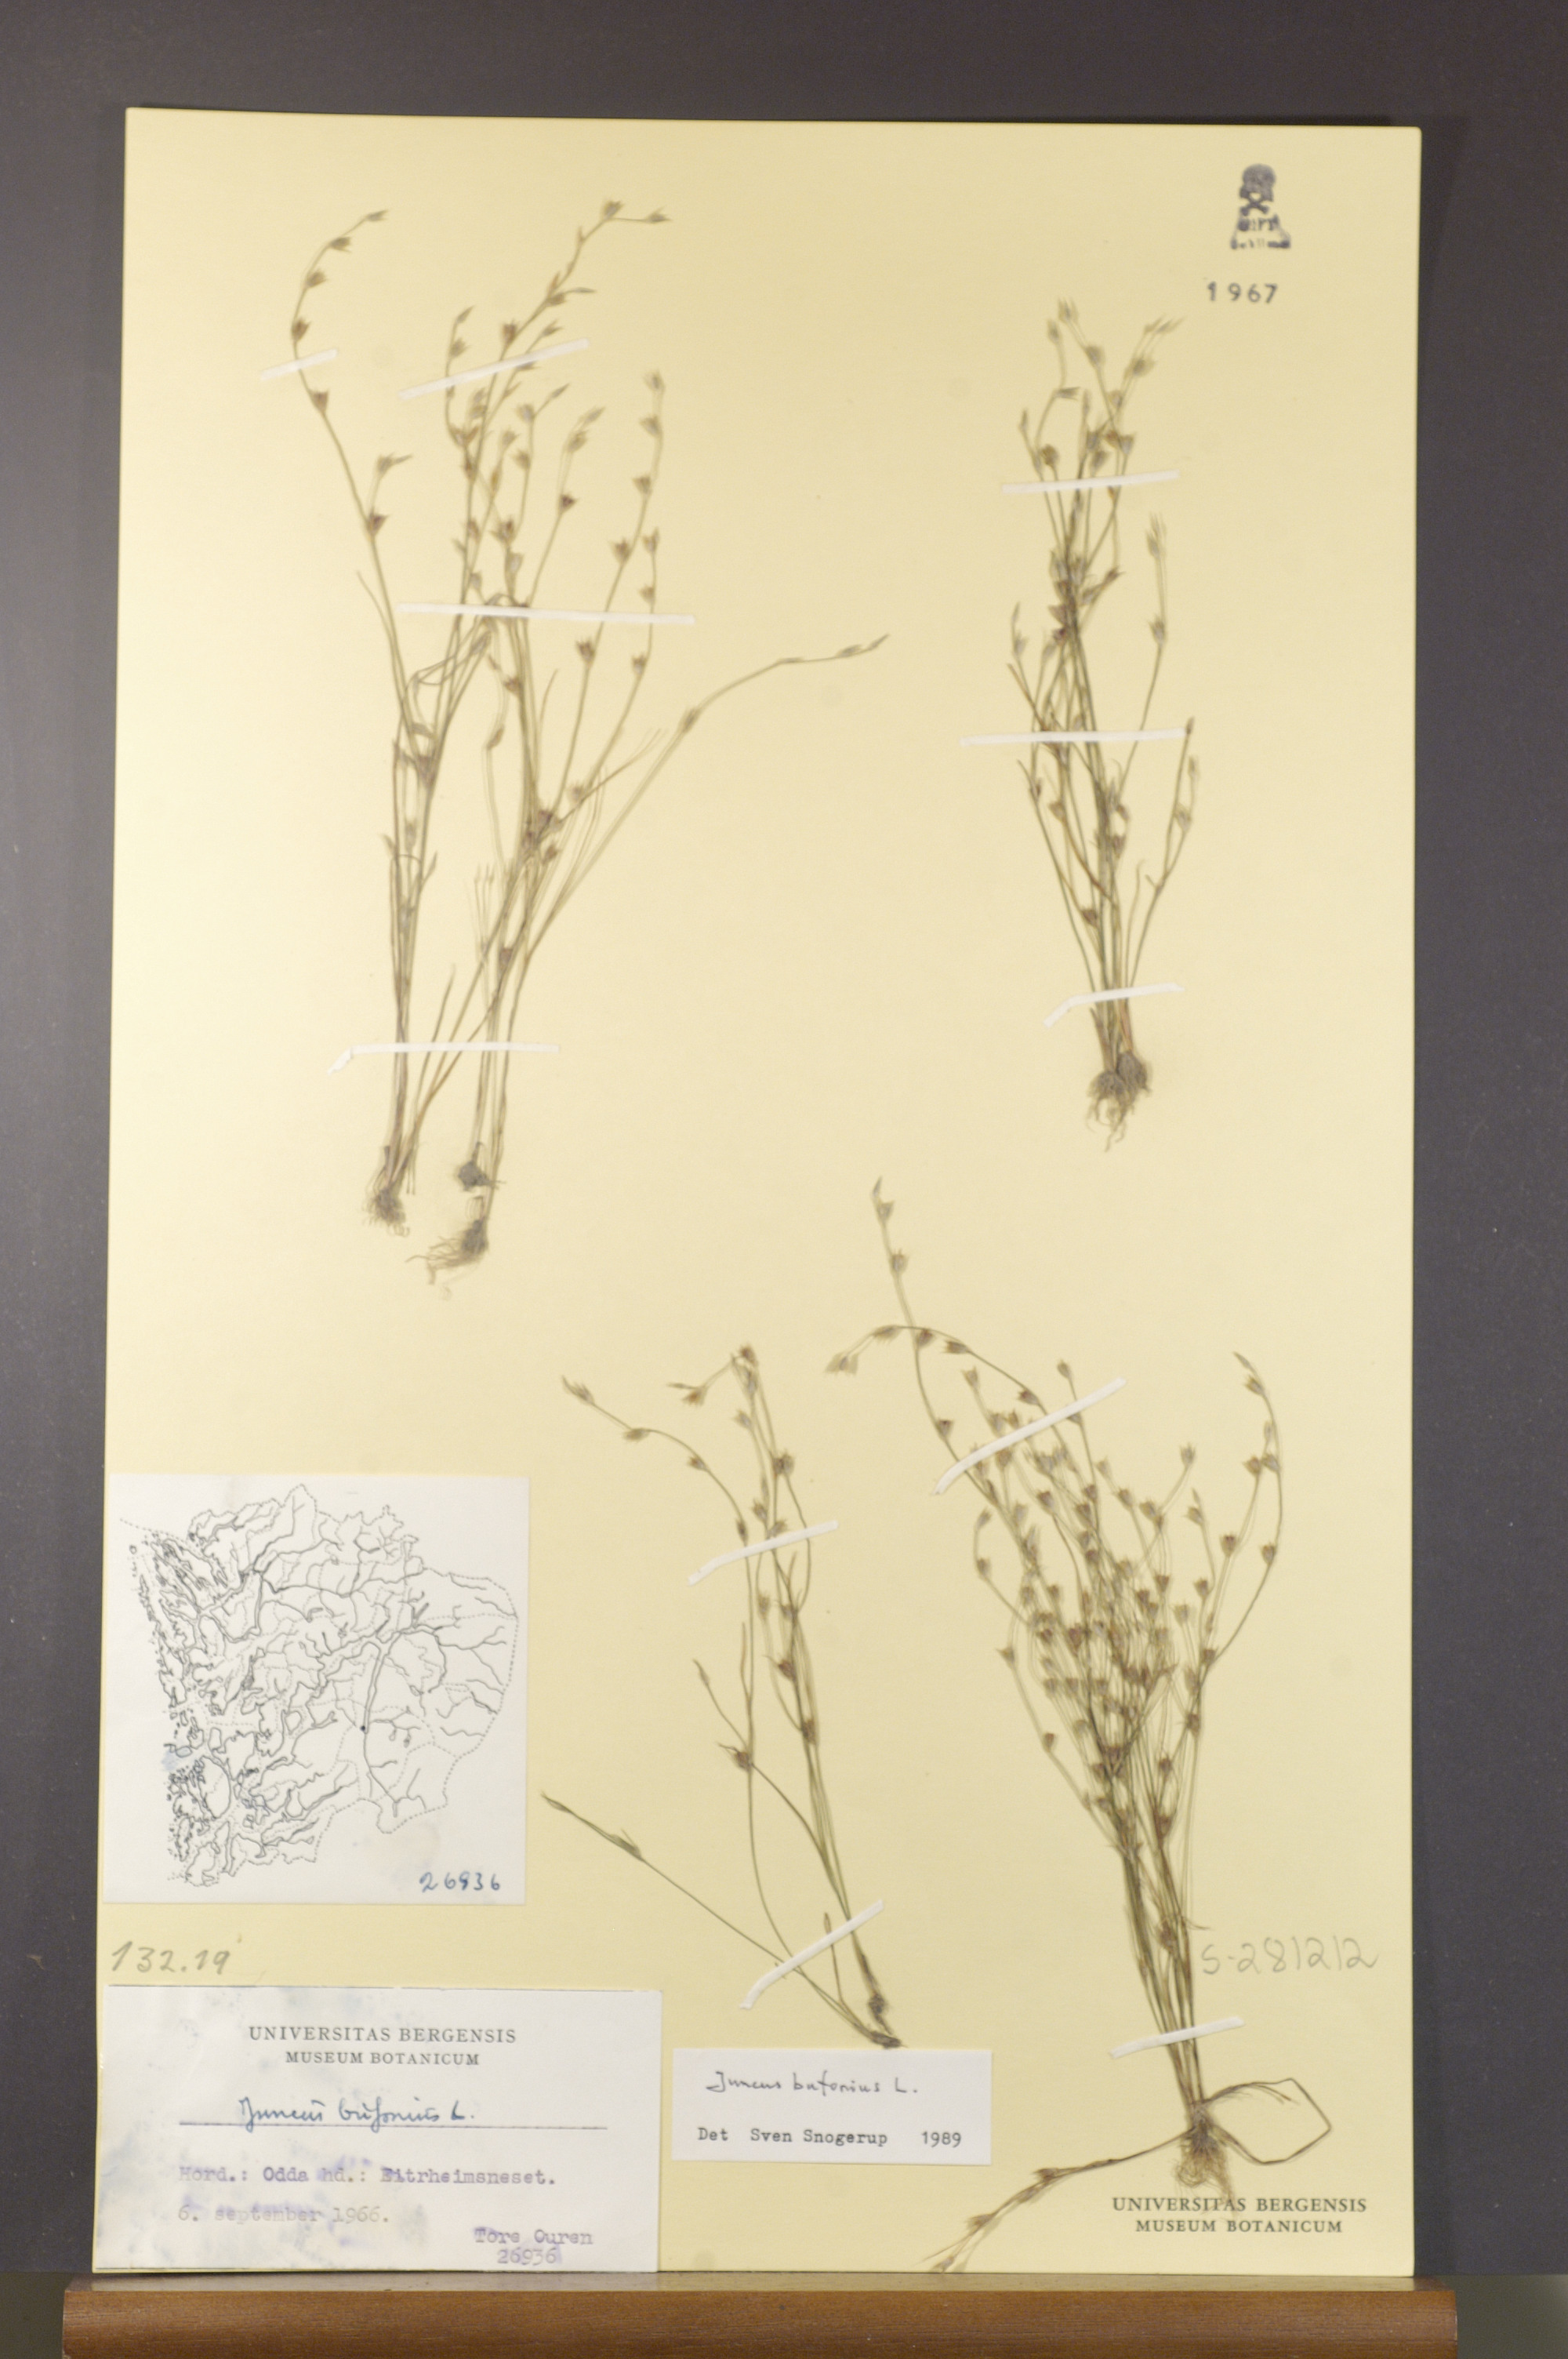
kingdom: Plantae
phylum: Tracheophyta
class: Liliopsida
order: Poales
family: Juncaceae
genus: Juncus
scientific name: Juncus bufonius
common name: Toad rush
